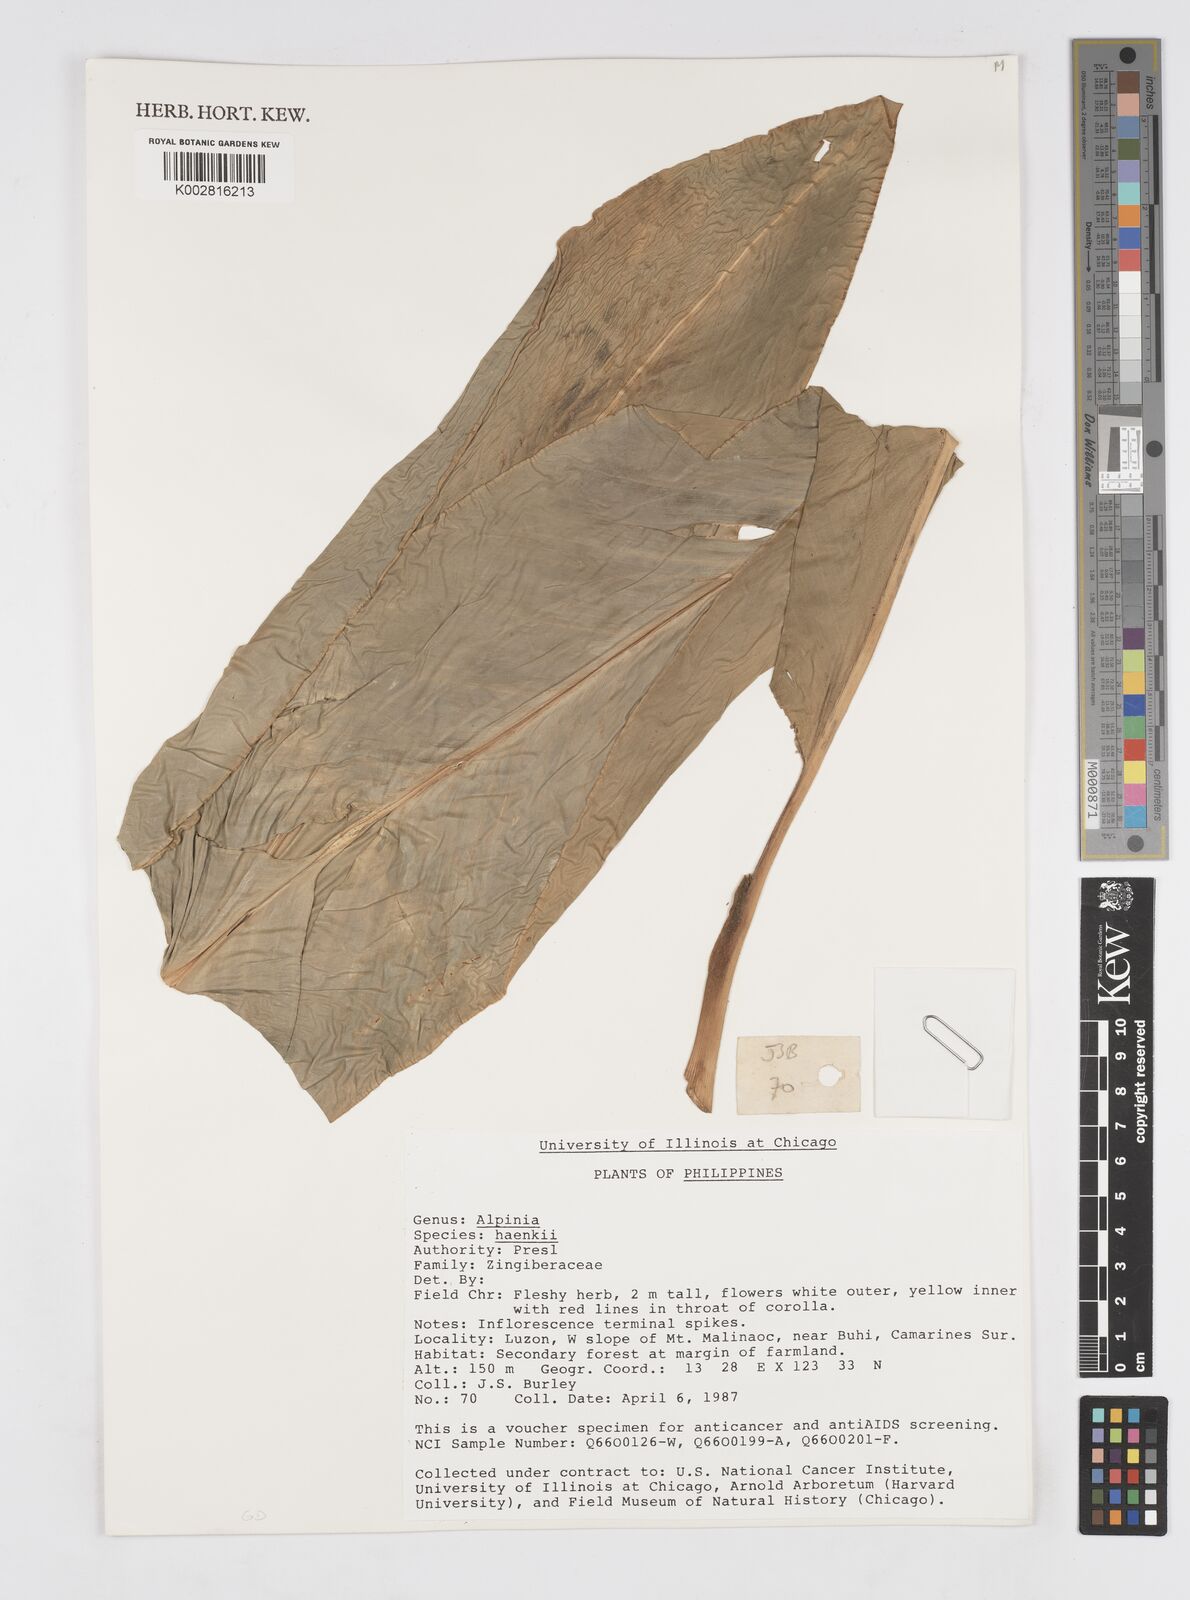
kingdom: Plantae
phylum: Tracheophyta
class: Liliopsida
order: Zingiberales
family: Zingiberaceae
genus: Alpinia
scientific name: Alpinia haenkei
